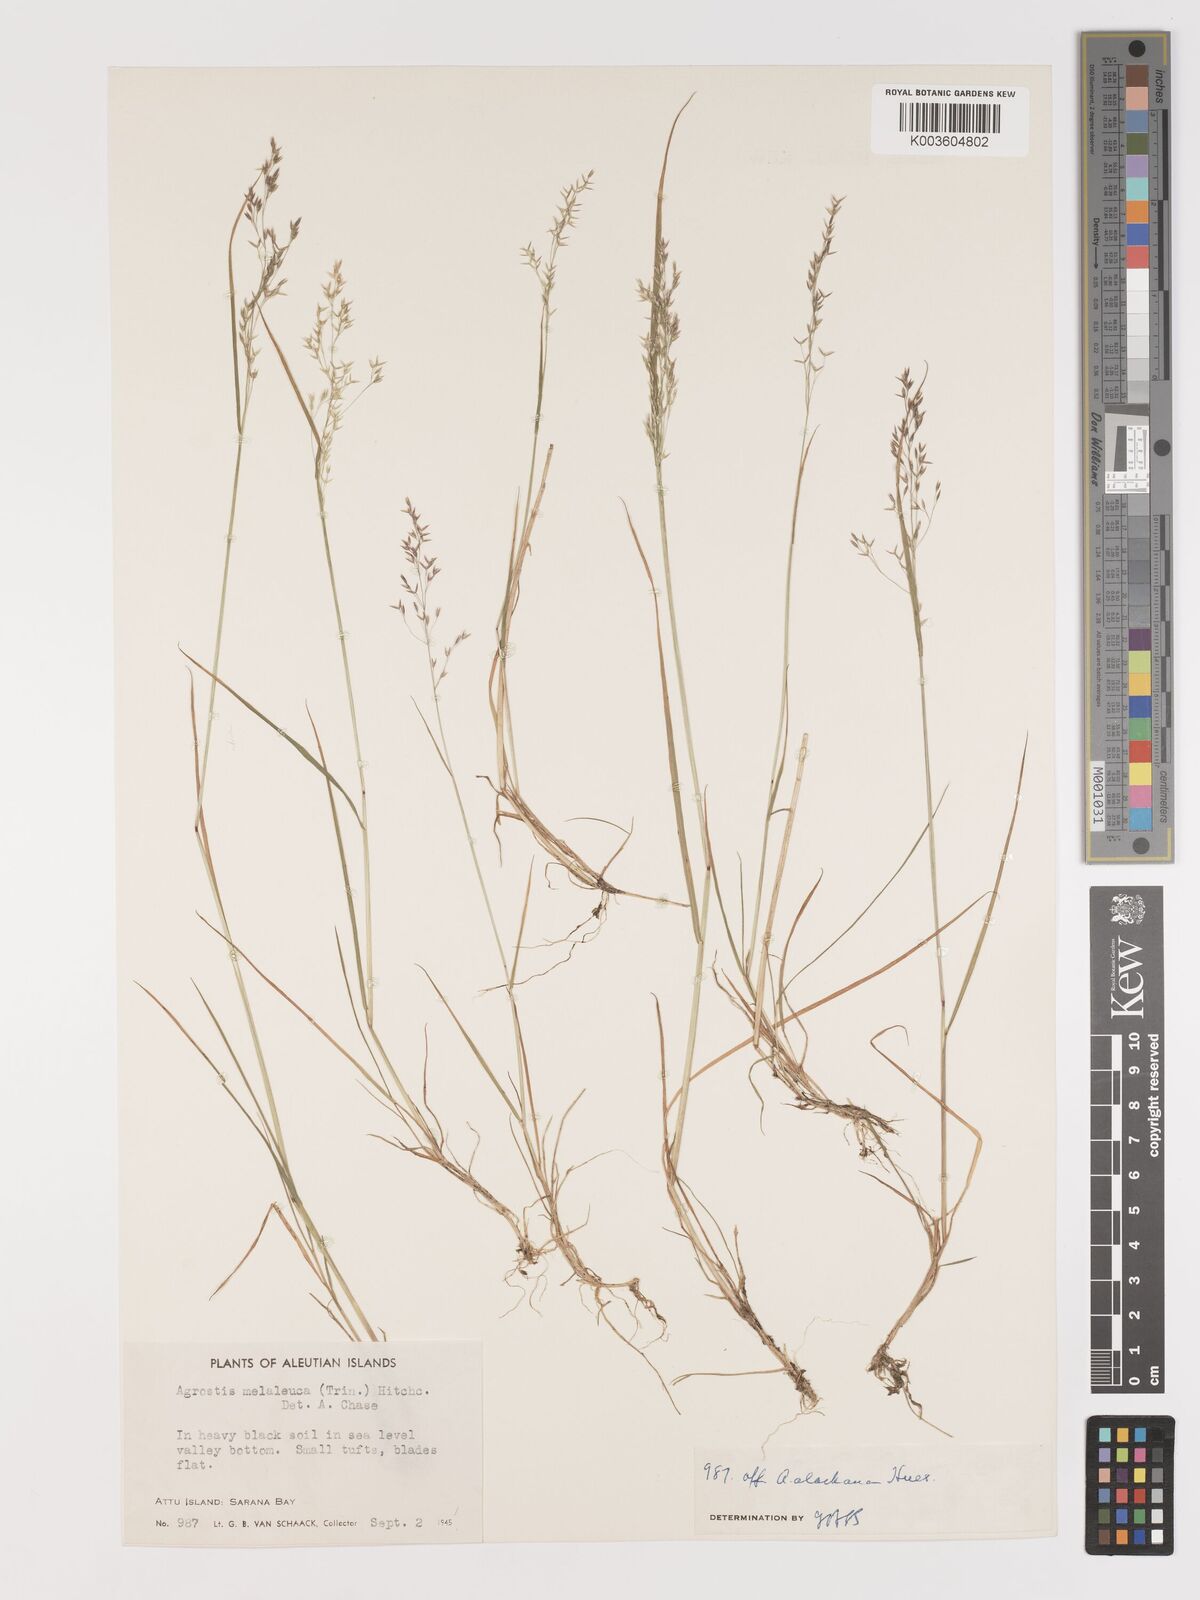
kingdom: Plantae
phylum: Tracheophyta
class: Liliopsida
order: Poales
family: Poaceae
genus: Agrostis
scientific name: Agrostis
